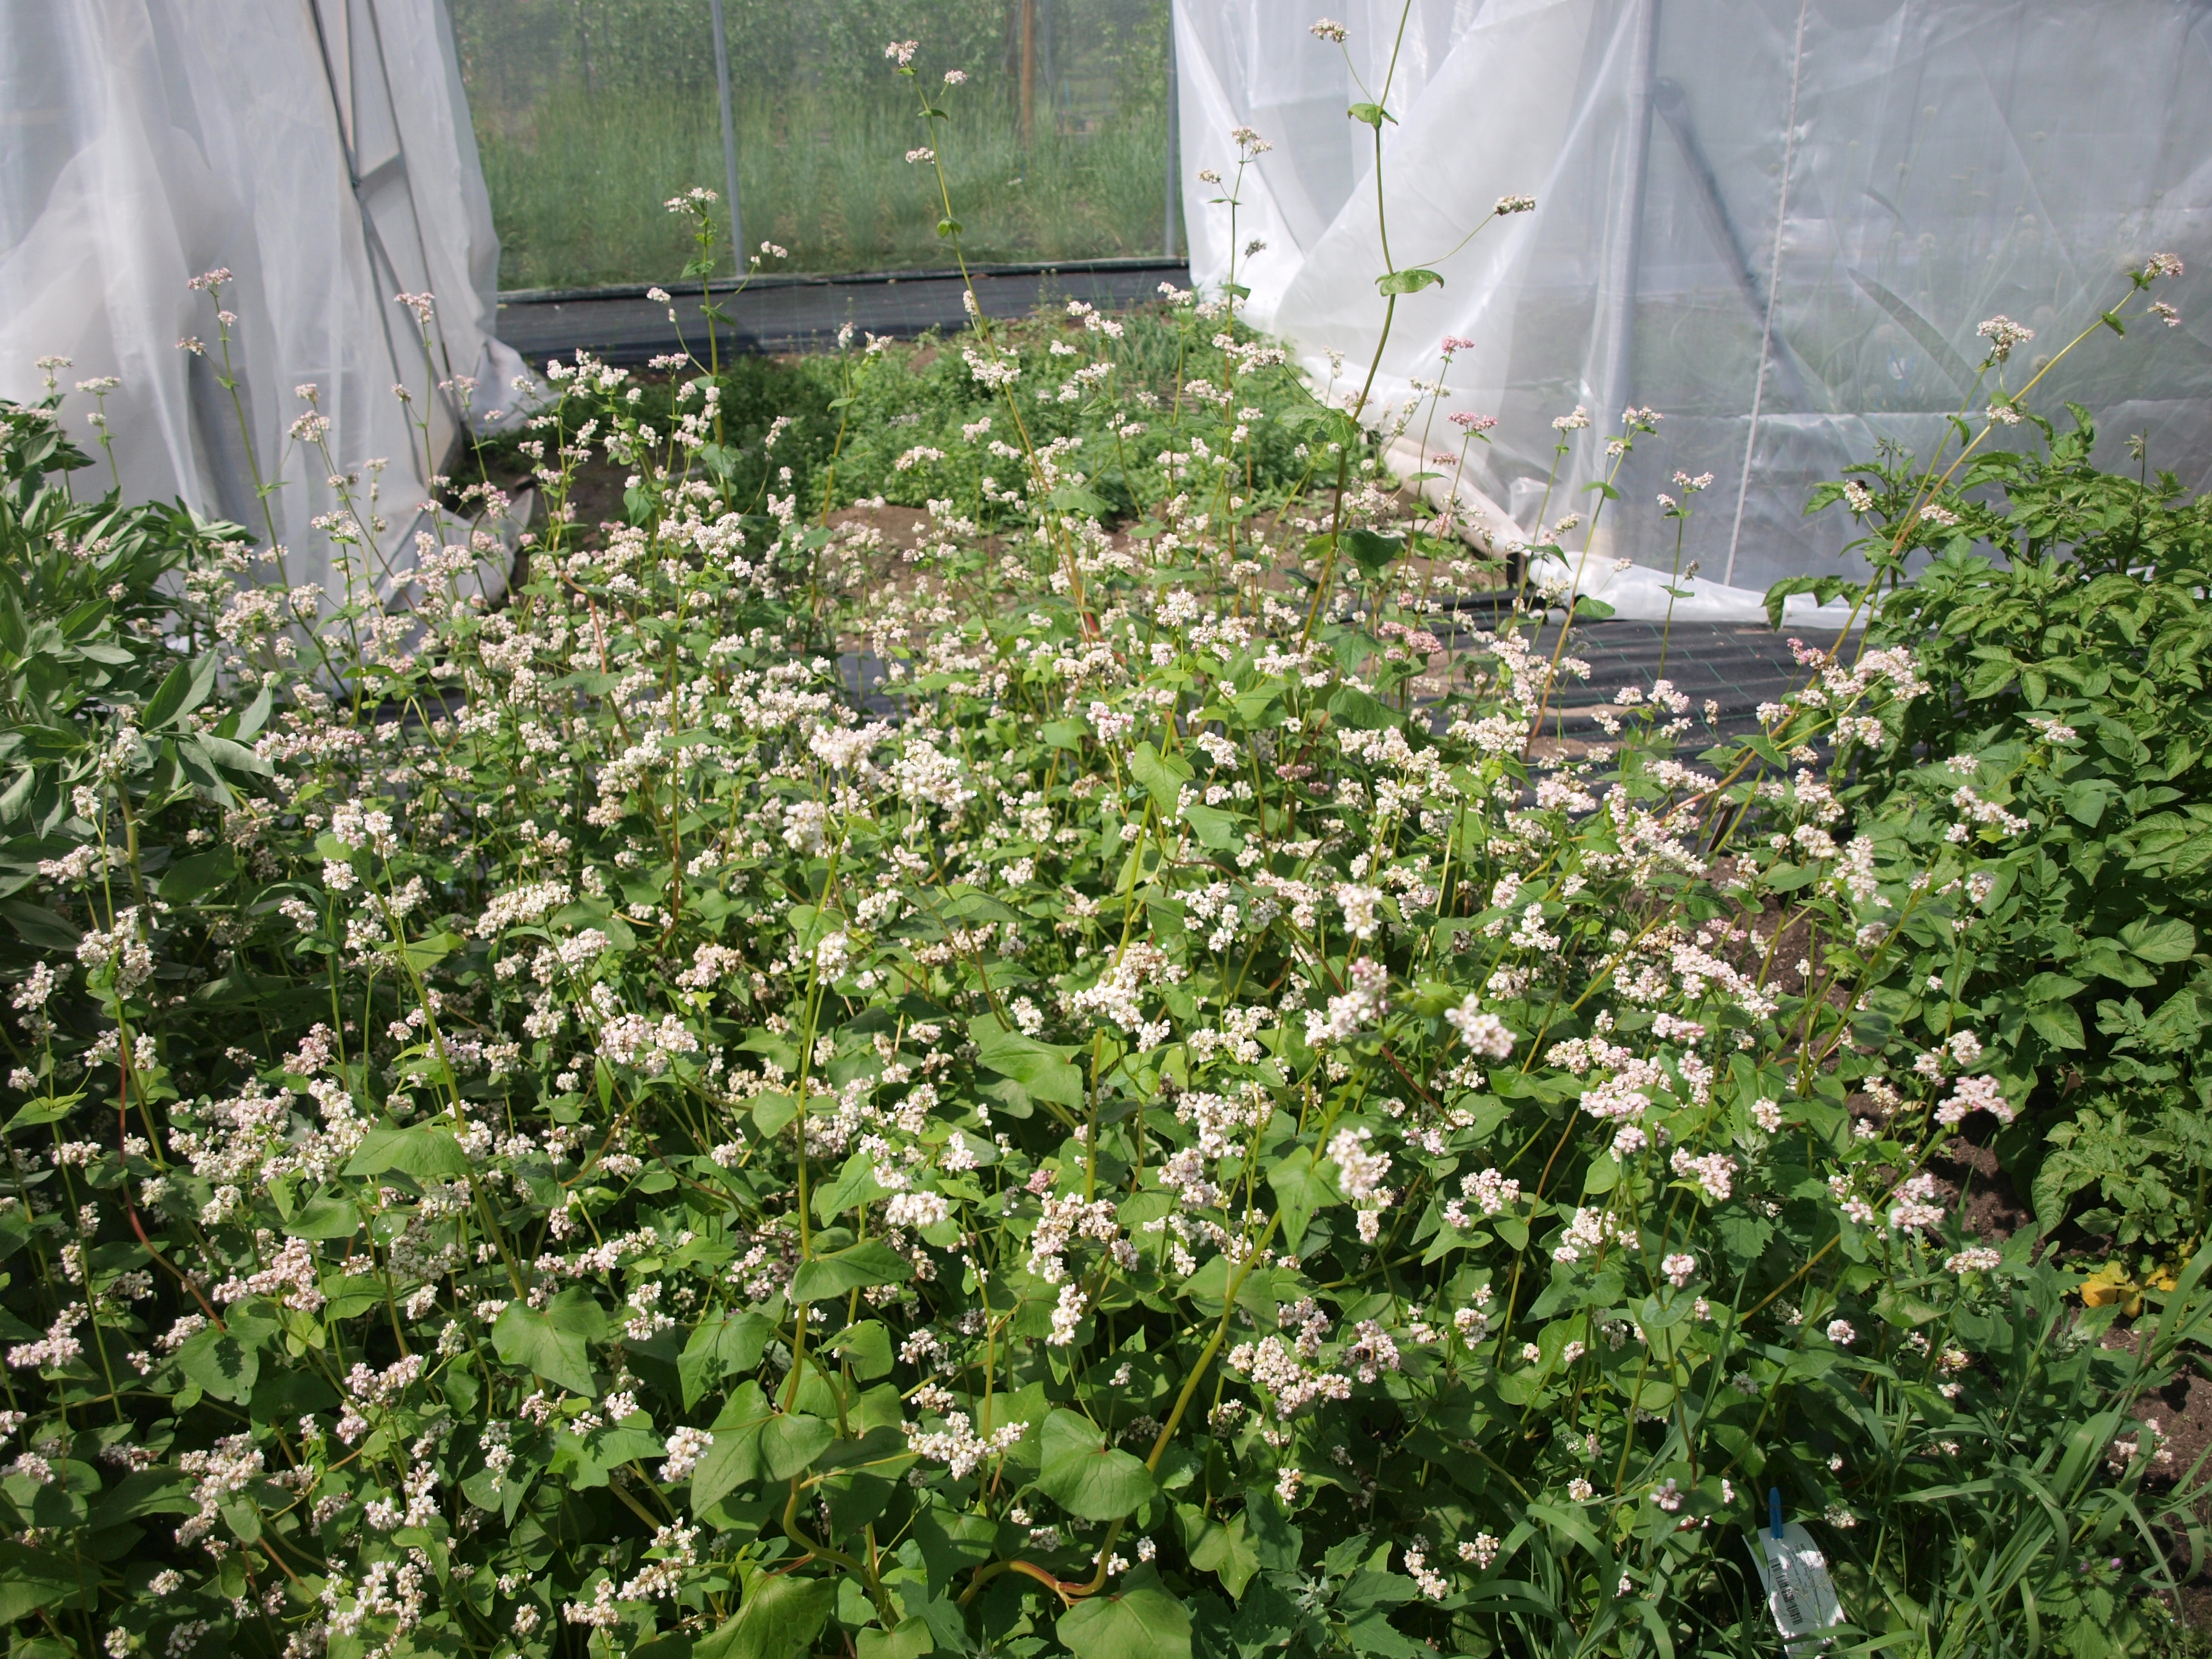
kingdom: Plantae
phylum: Tracheophyta
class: Magnoliopsida
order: Caryophyllales
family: Polygonaceae
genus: Fagopyrum
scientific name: Fagopyrum esculentum
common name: Buckwheat
